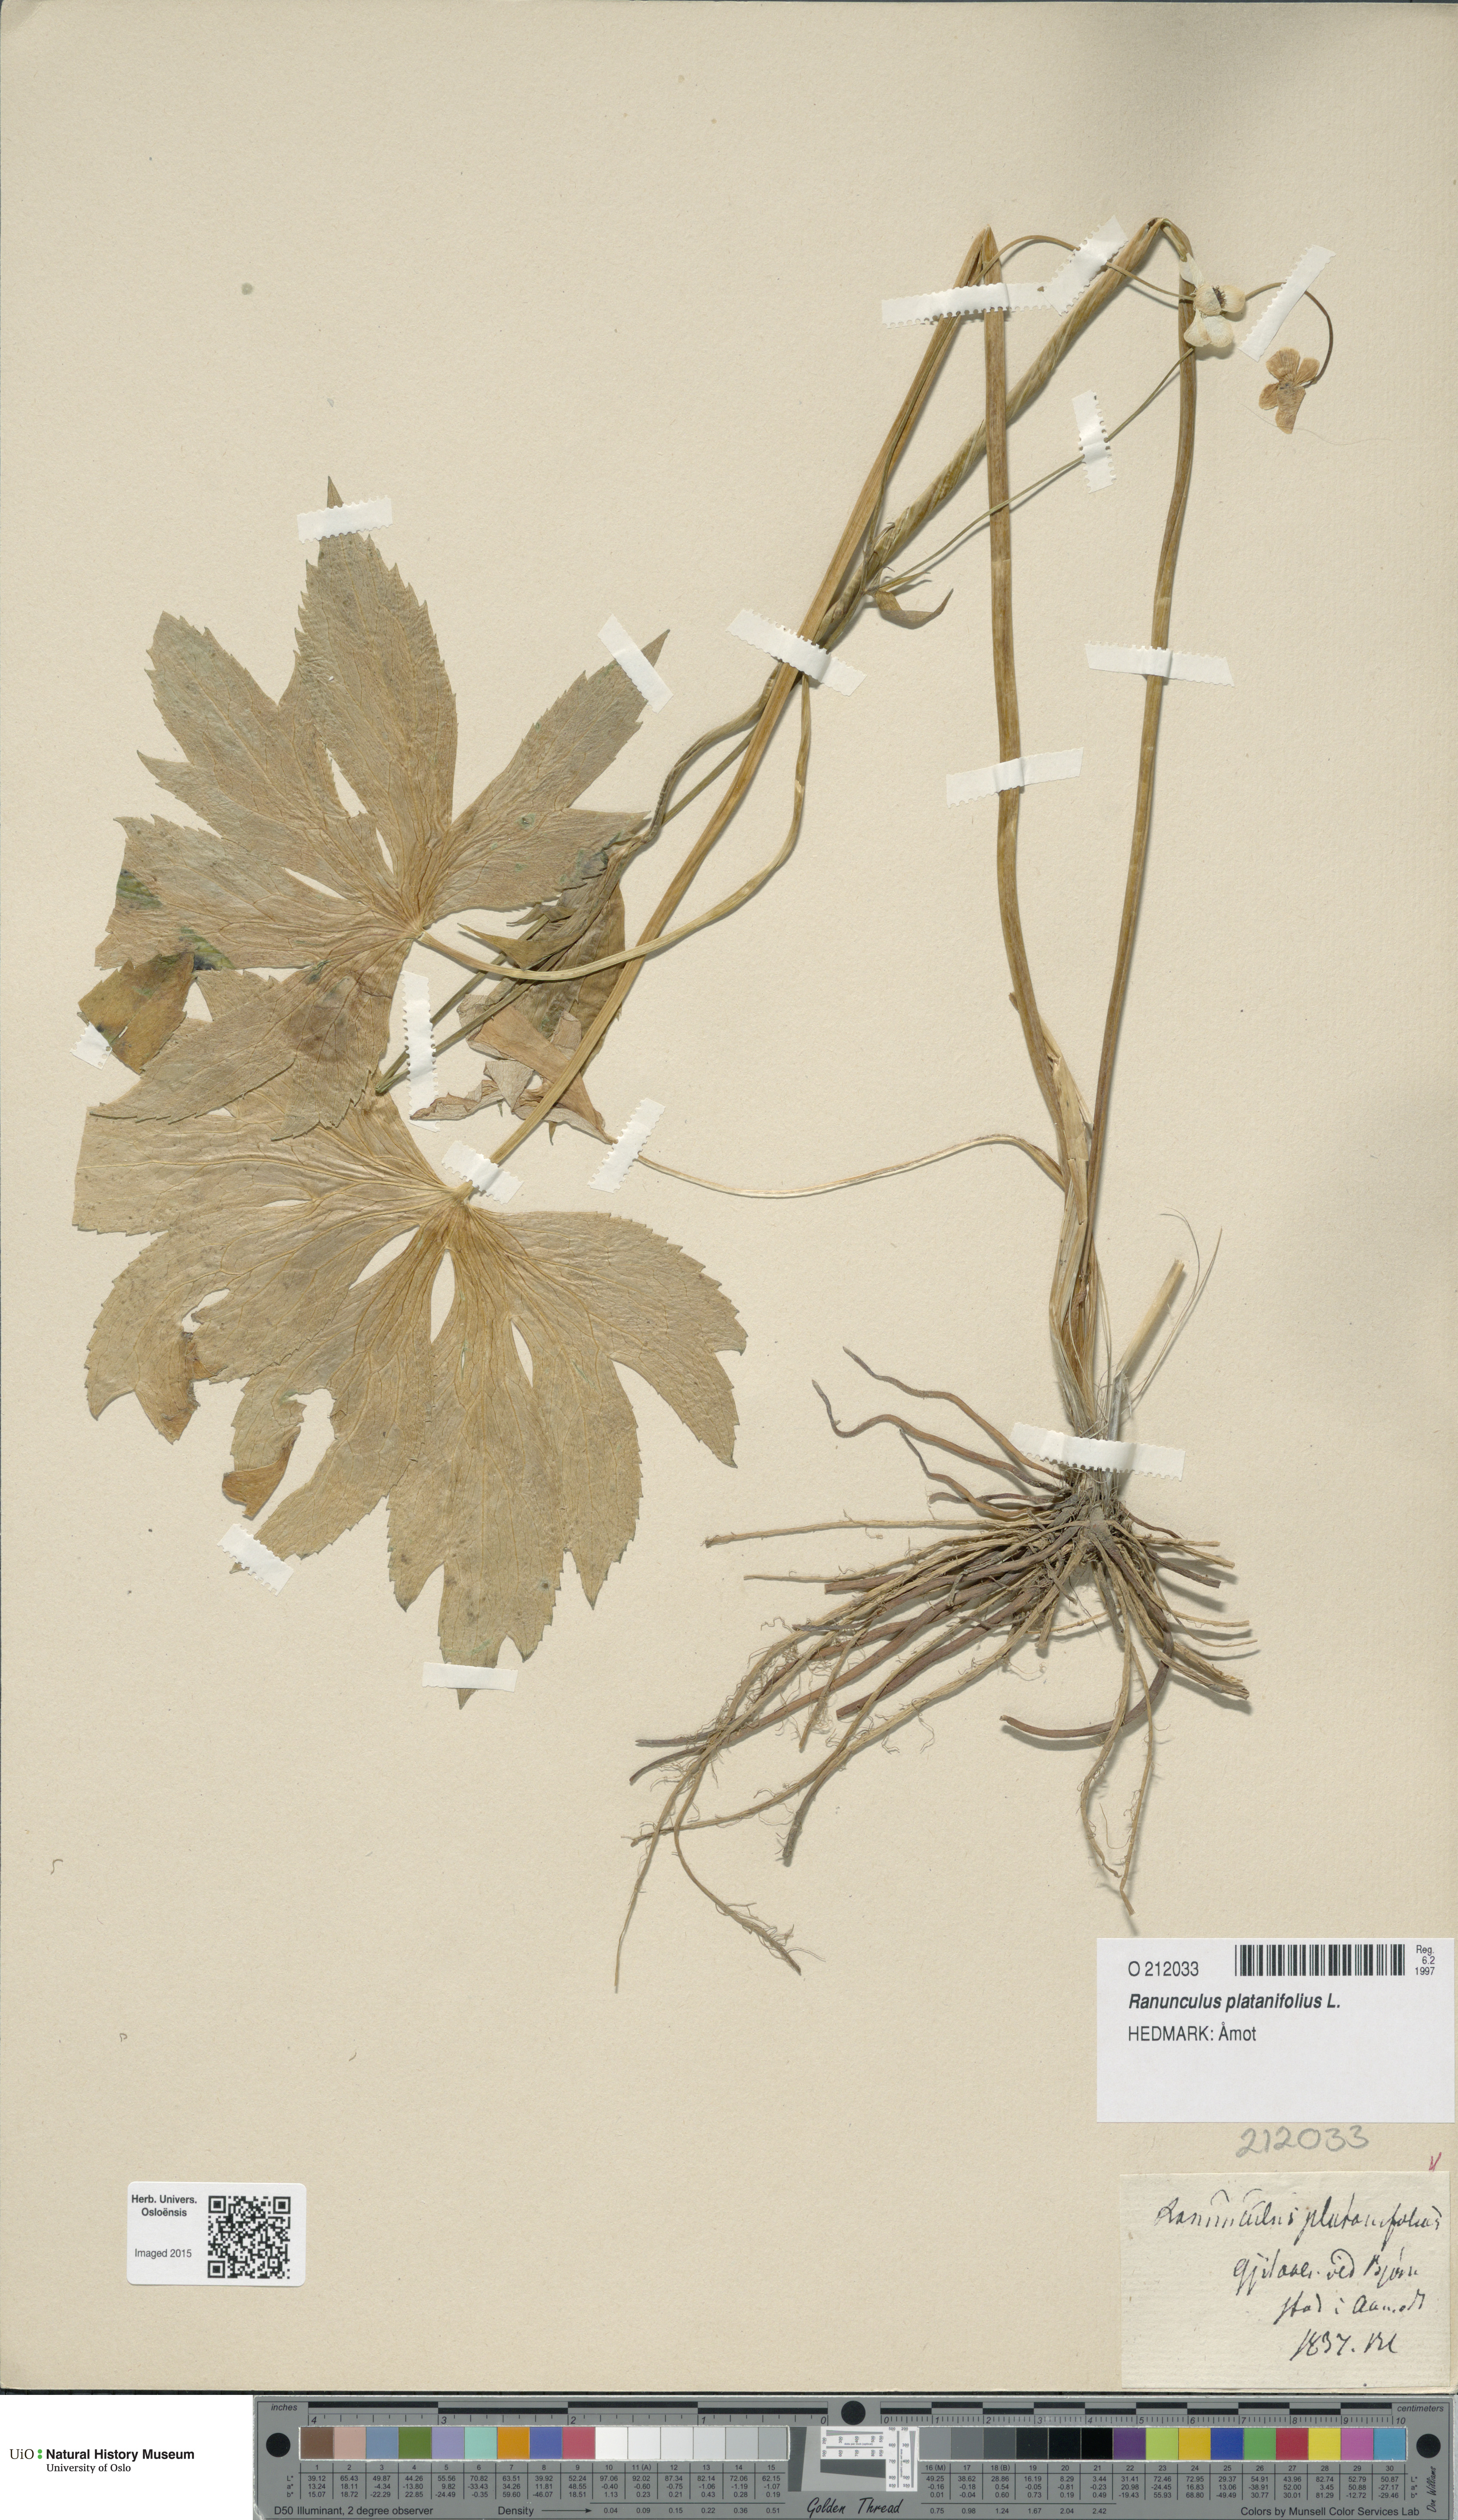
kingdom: Plantae
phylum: Tracheophyta
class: Magnoliopsida
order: Ranunculales
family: Ranunculaceae
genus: Ranunculus
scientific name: Ranunculus platanifolius
